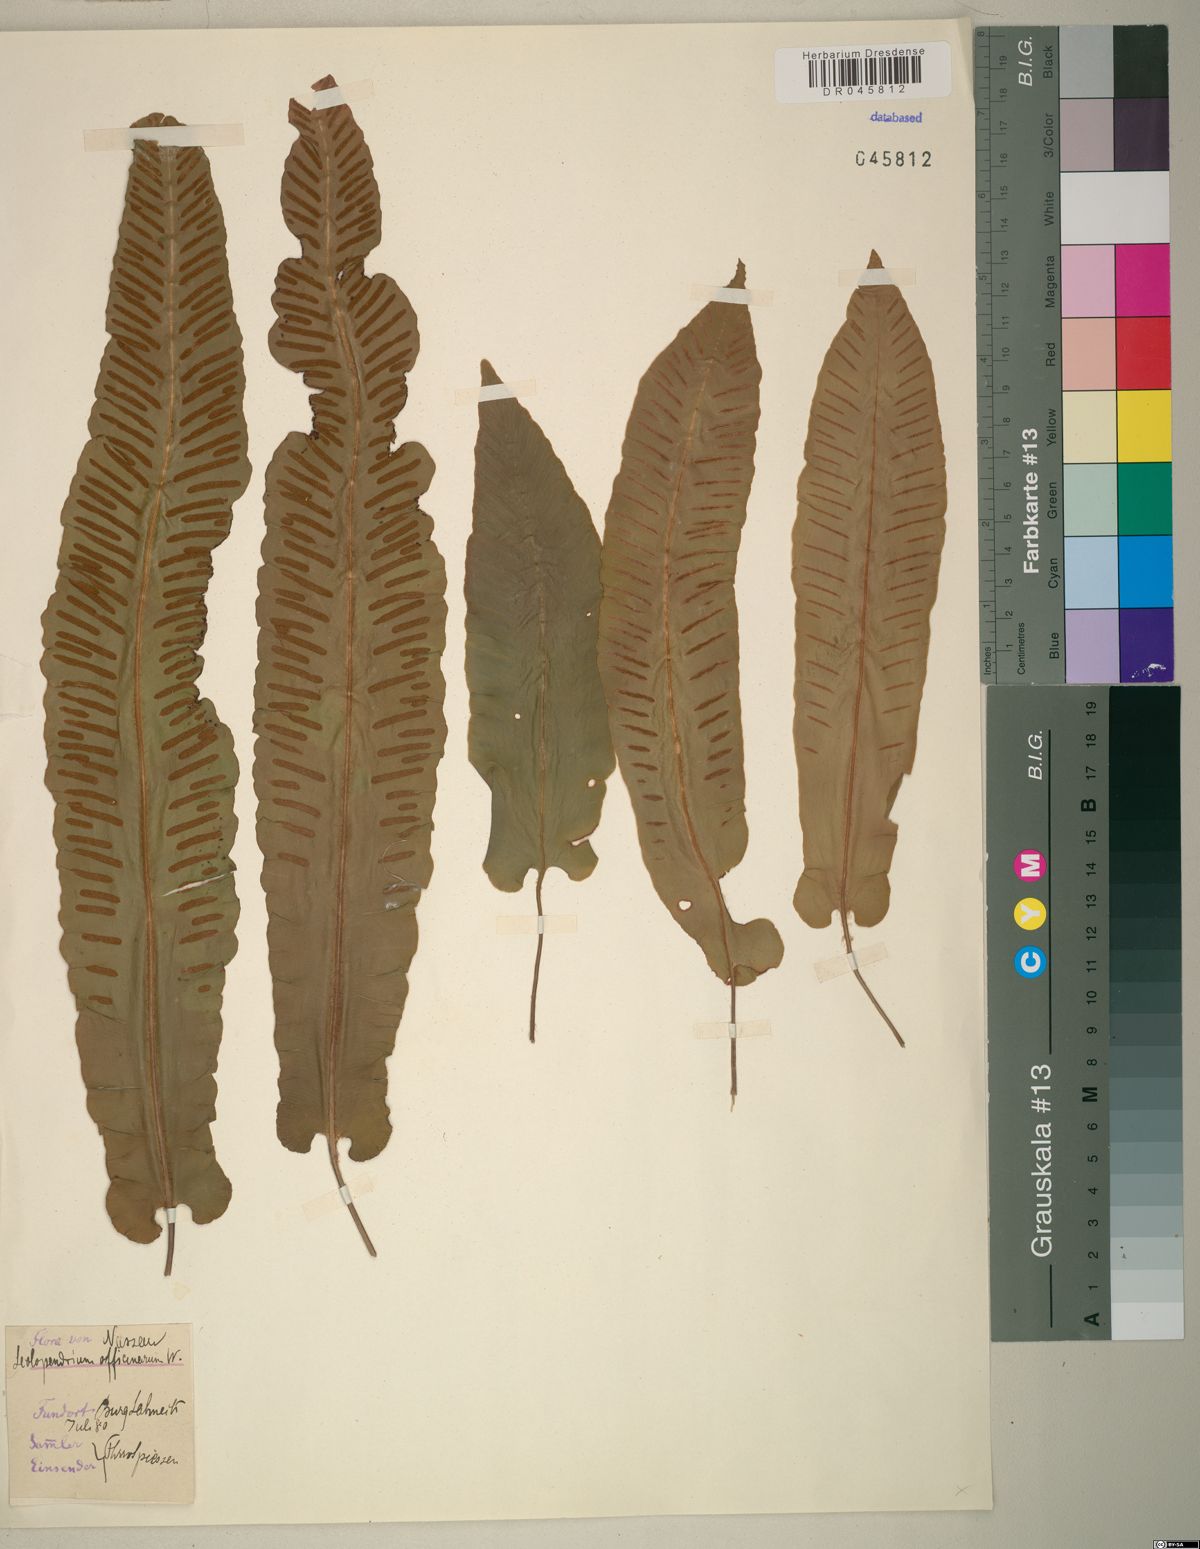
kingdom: Plantae
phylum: Tracheophyta
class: Polypodiopsida
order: Polypodiales
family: Aspleniaceae
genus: Asplenium
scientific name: Asplenium scolopendrium
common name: Hart's-tongue fern
